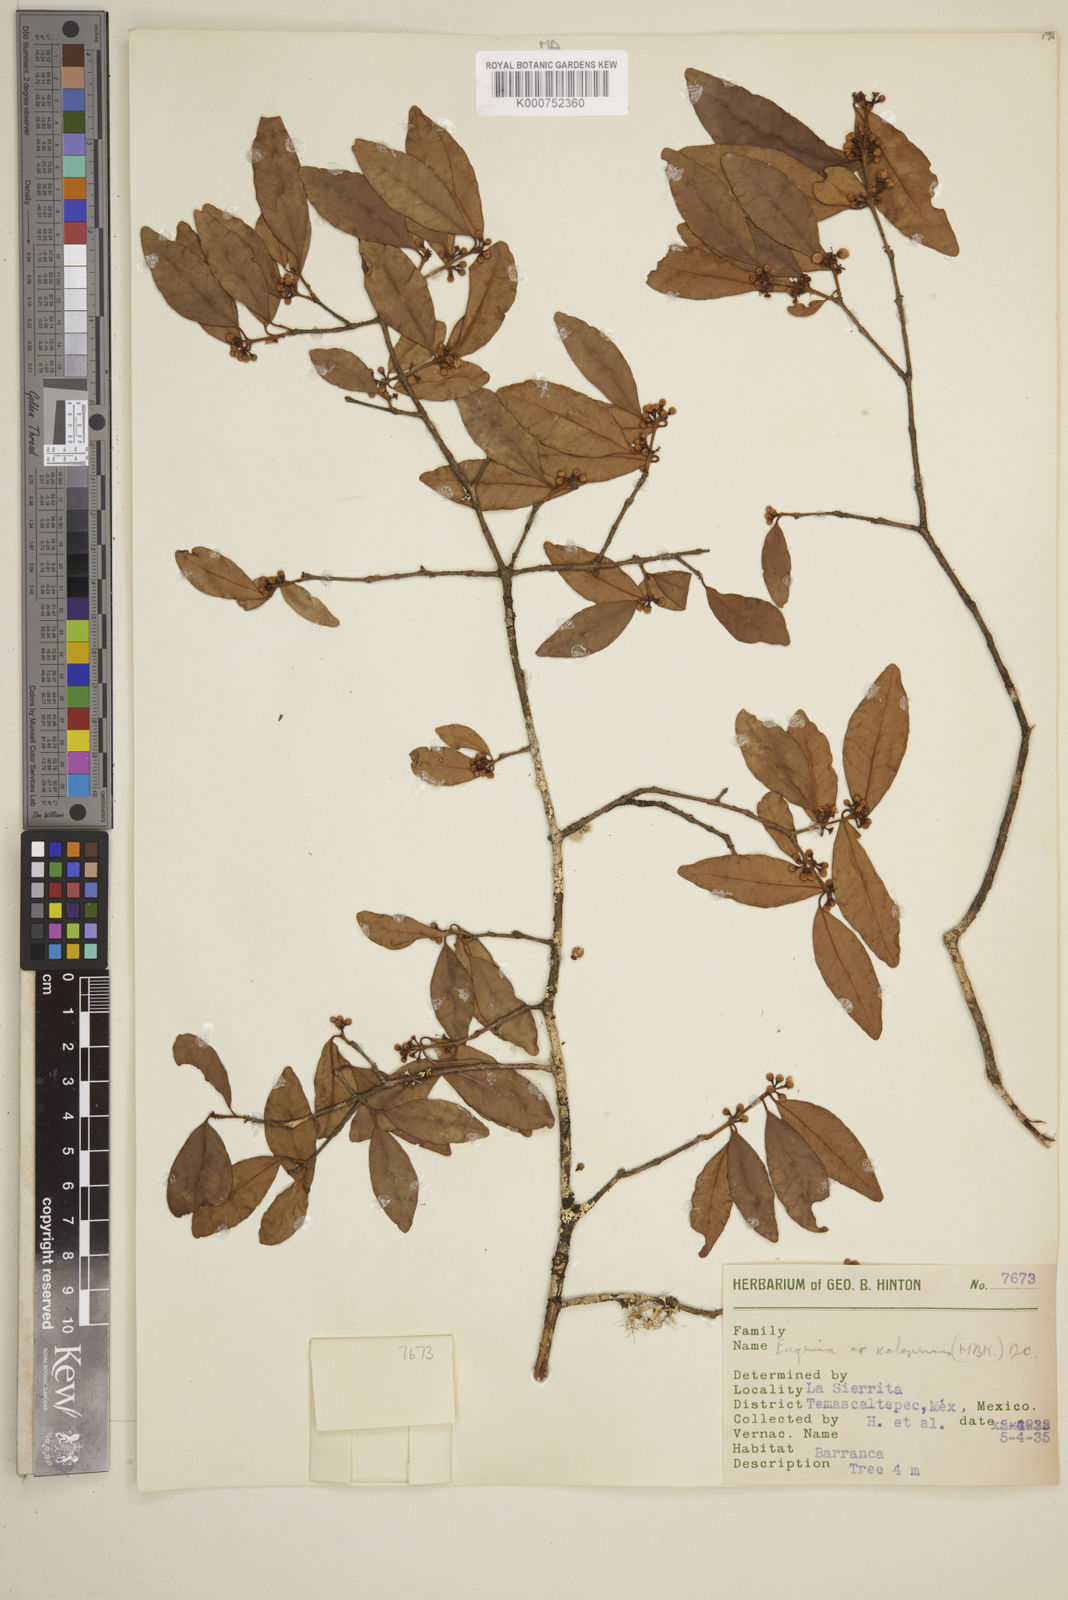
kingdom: Plantae
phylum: Tracheophyta
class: Magnoliopsida
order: Myrtales
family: Myrtaceae
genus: Eugenia
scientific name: Eugenia xalapensis
